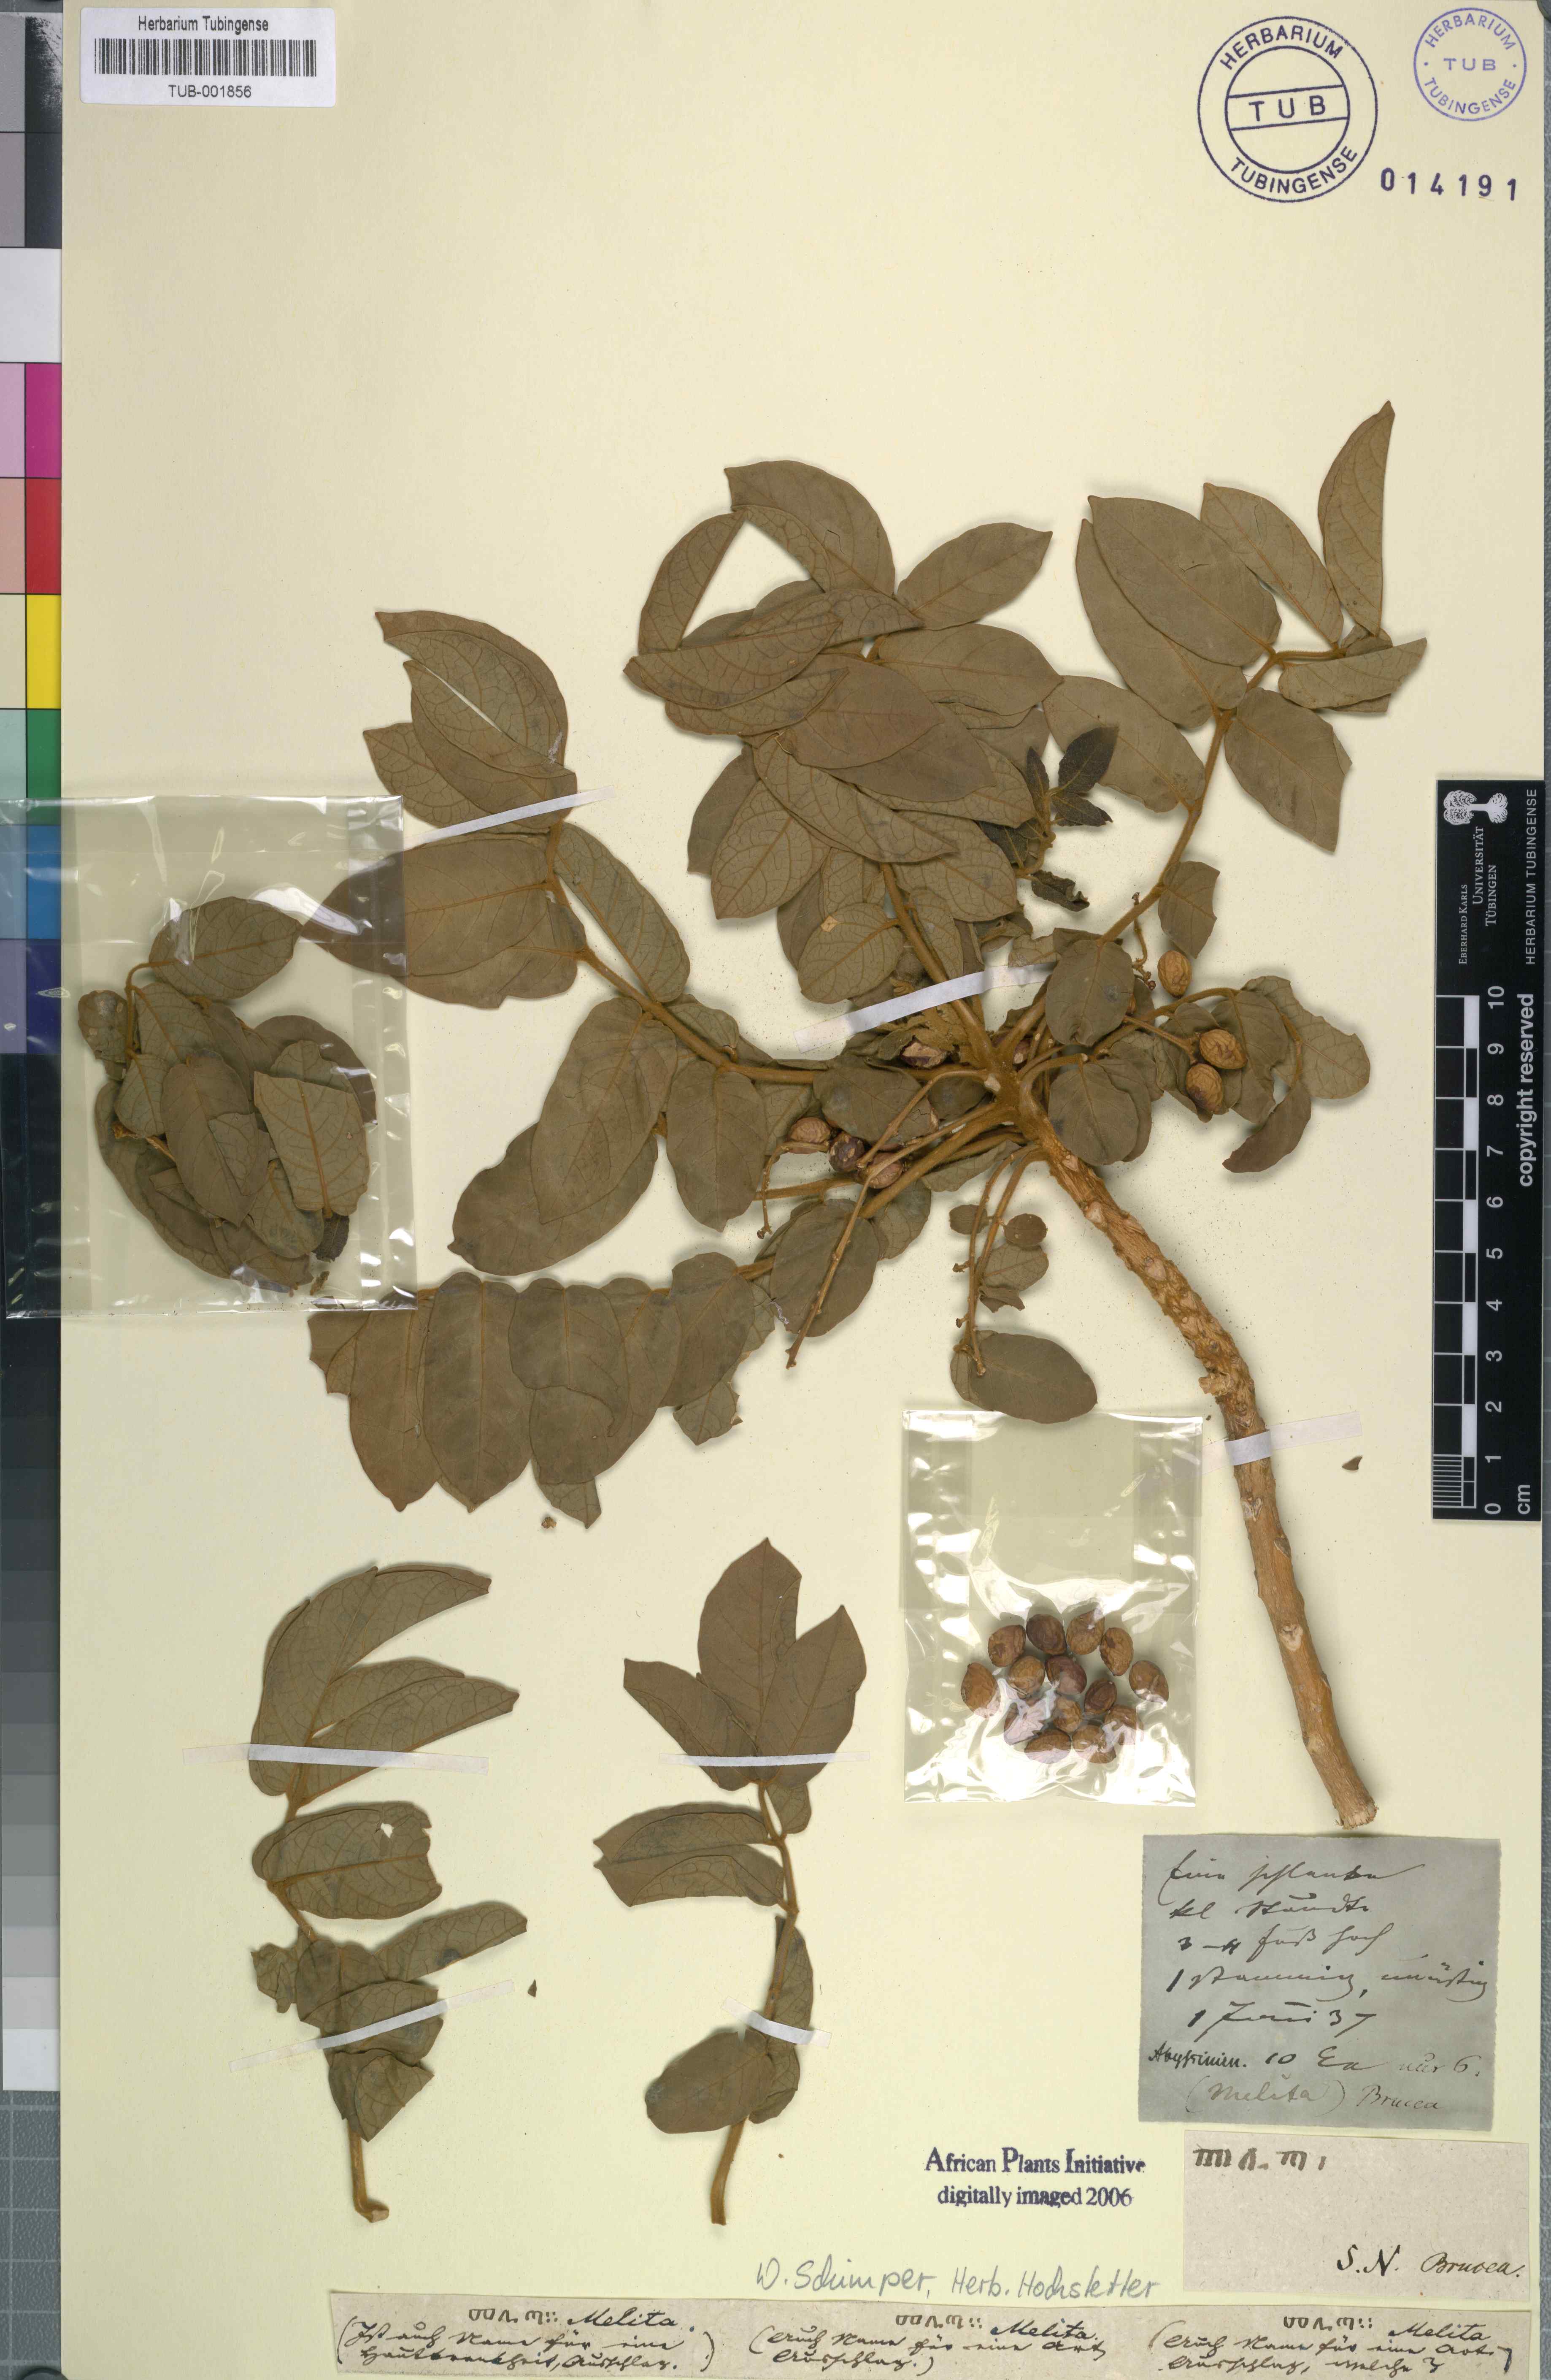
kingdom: Plantae
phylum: Tracheophyta
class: Magnoliopsida
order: Sapindales
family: Simaroubaceae
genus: Brucea
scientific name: Brucea
